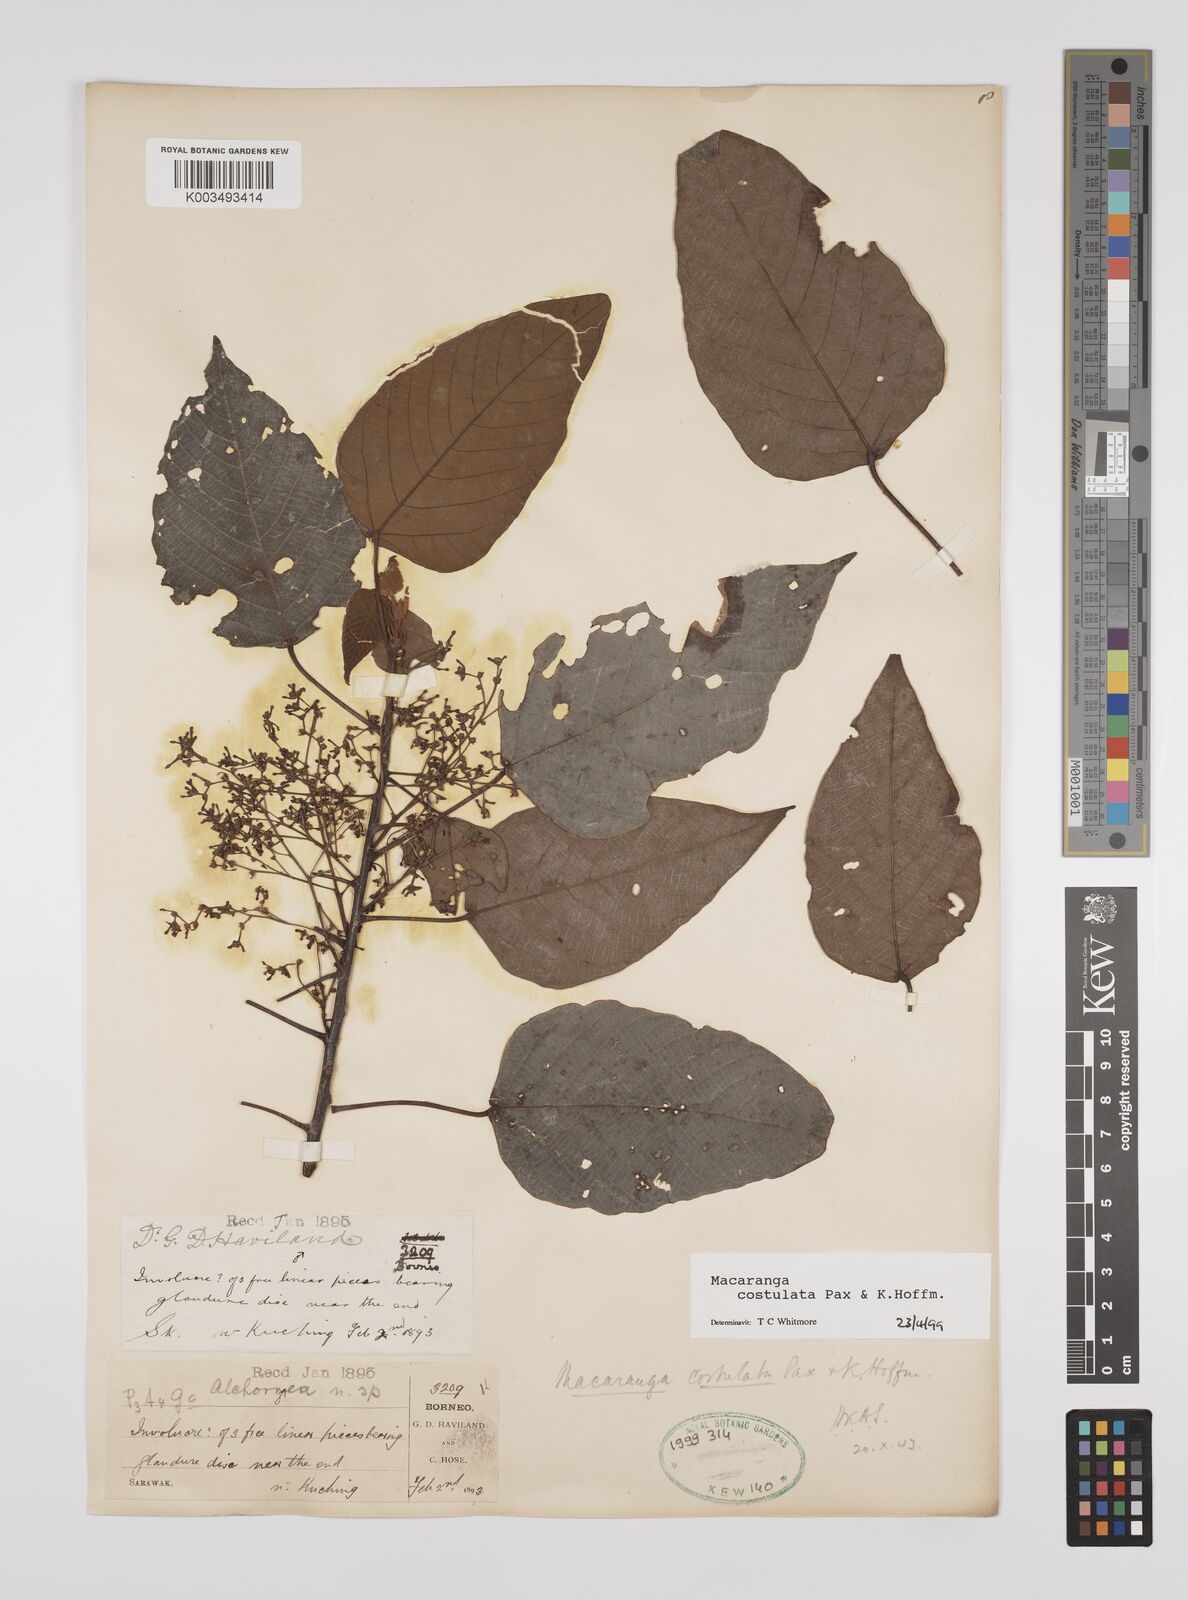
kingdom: Plantae
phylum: Tracheophyta
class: Magnoliopsida
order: Malpighiales
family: Euphorbiaceae
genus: Macaranga
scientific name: Macaranga costulata
